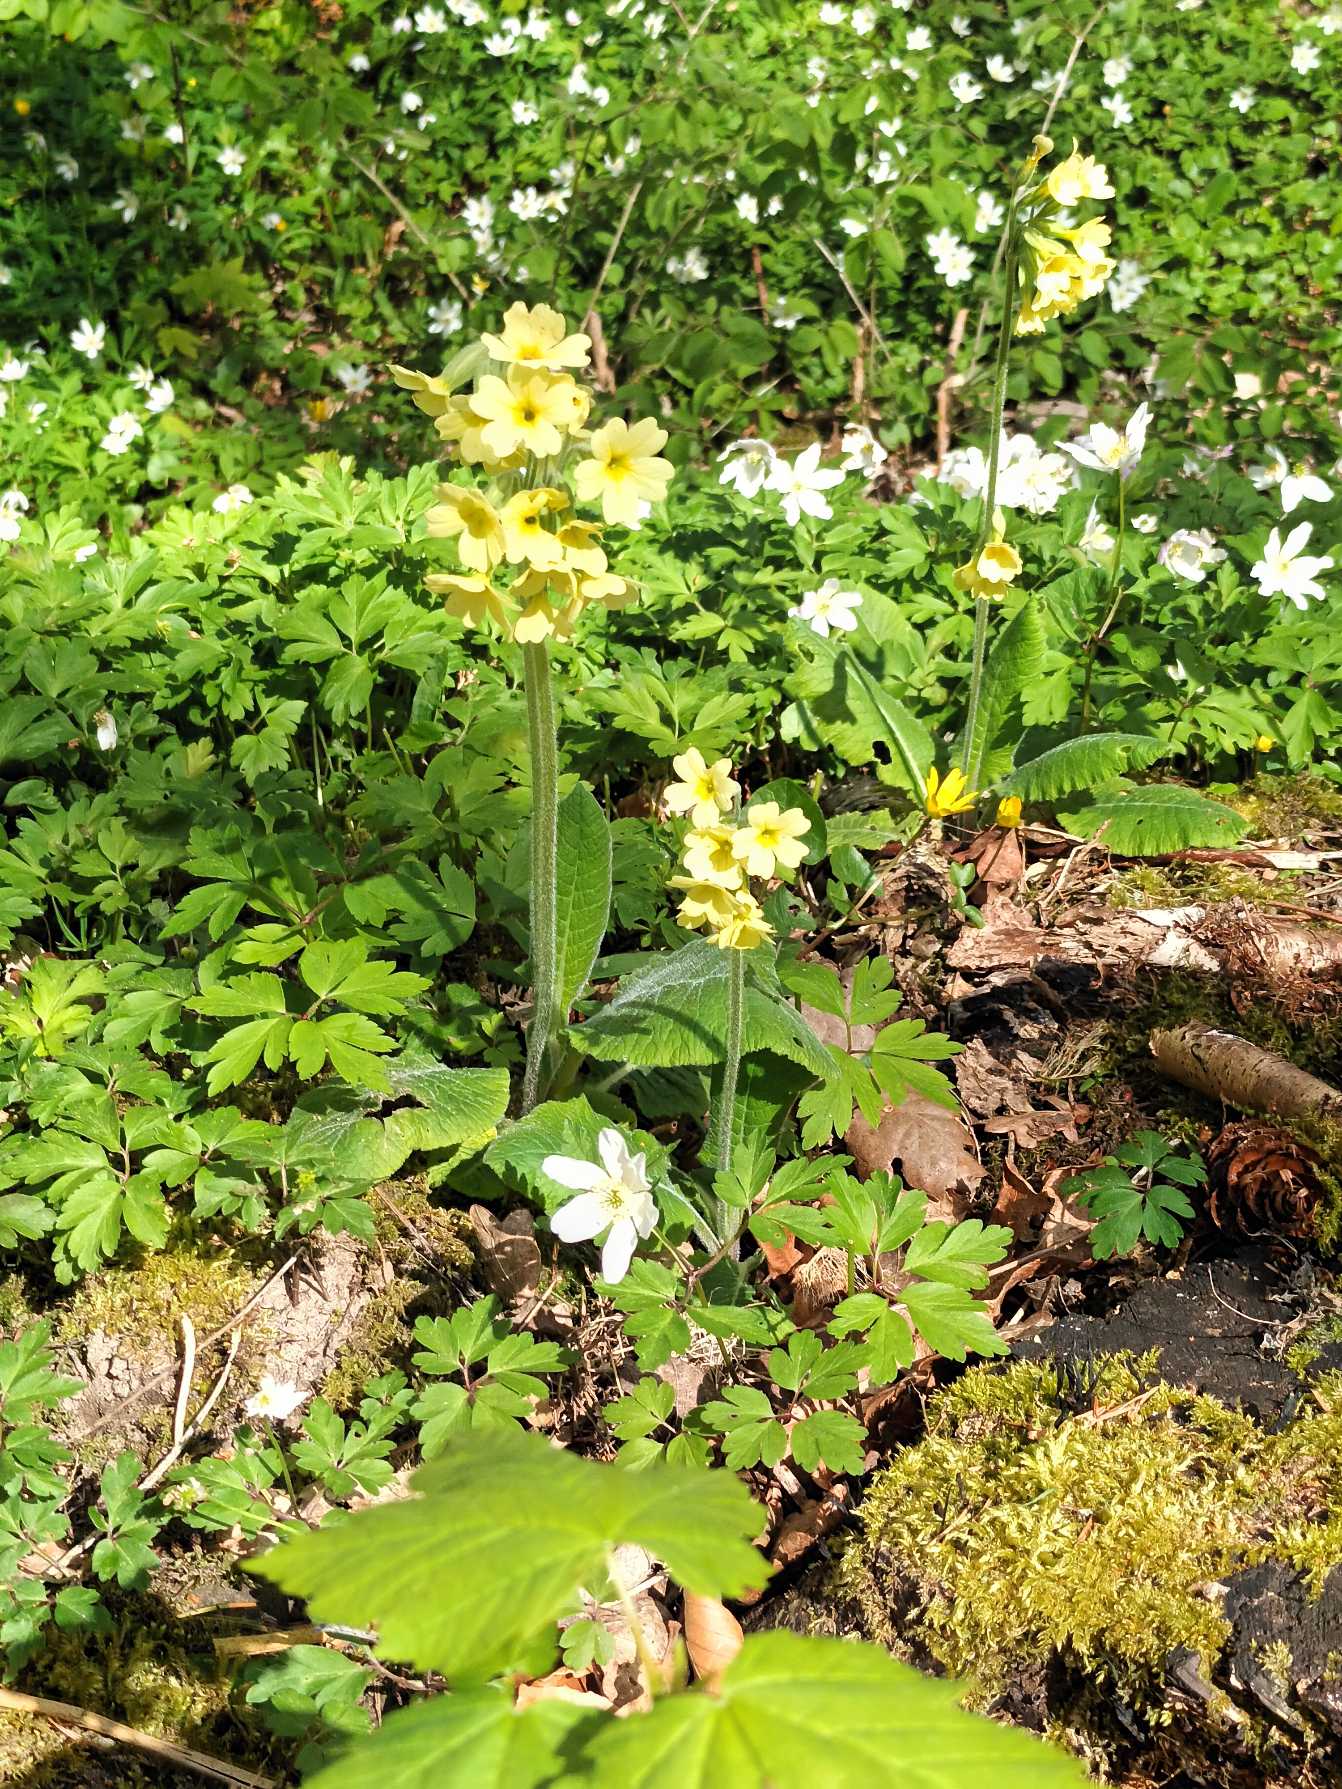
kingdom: Plantae
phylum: Tracheophyta
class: Magnoliopsida
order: Ericales
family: Primulaceae
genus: Primula
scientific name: Primula elatior
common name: Fladkravet kodriver
